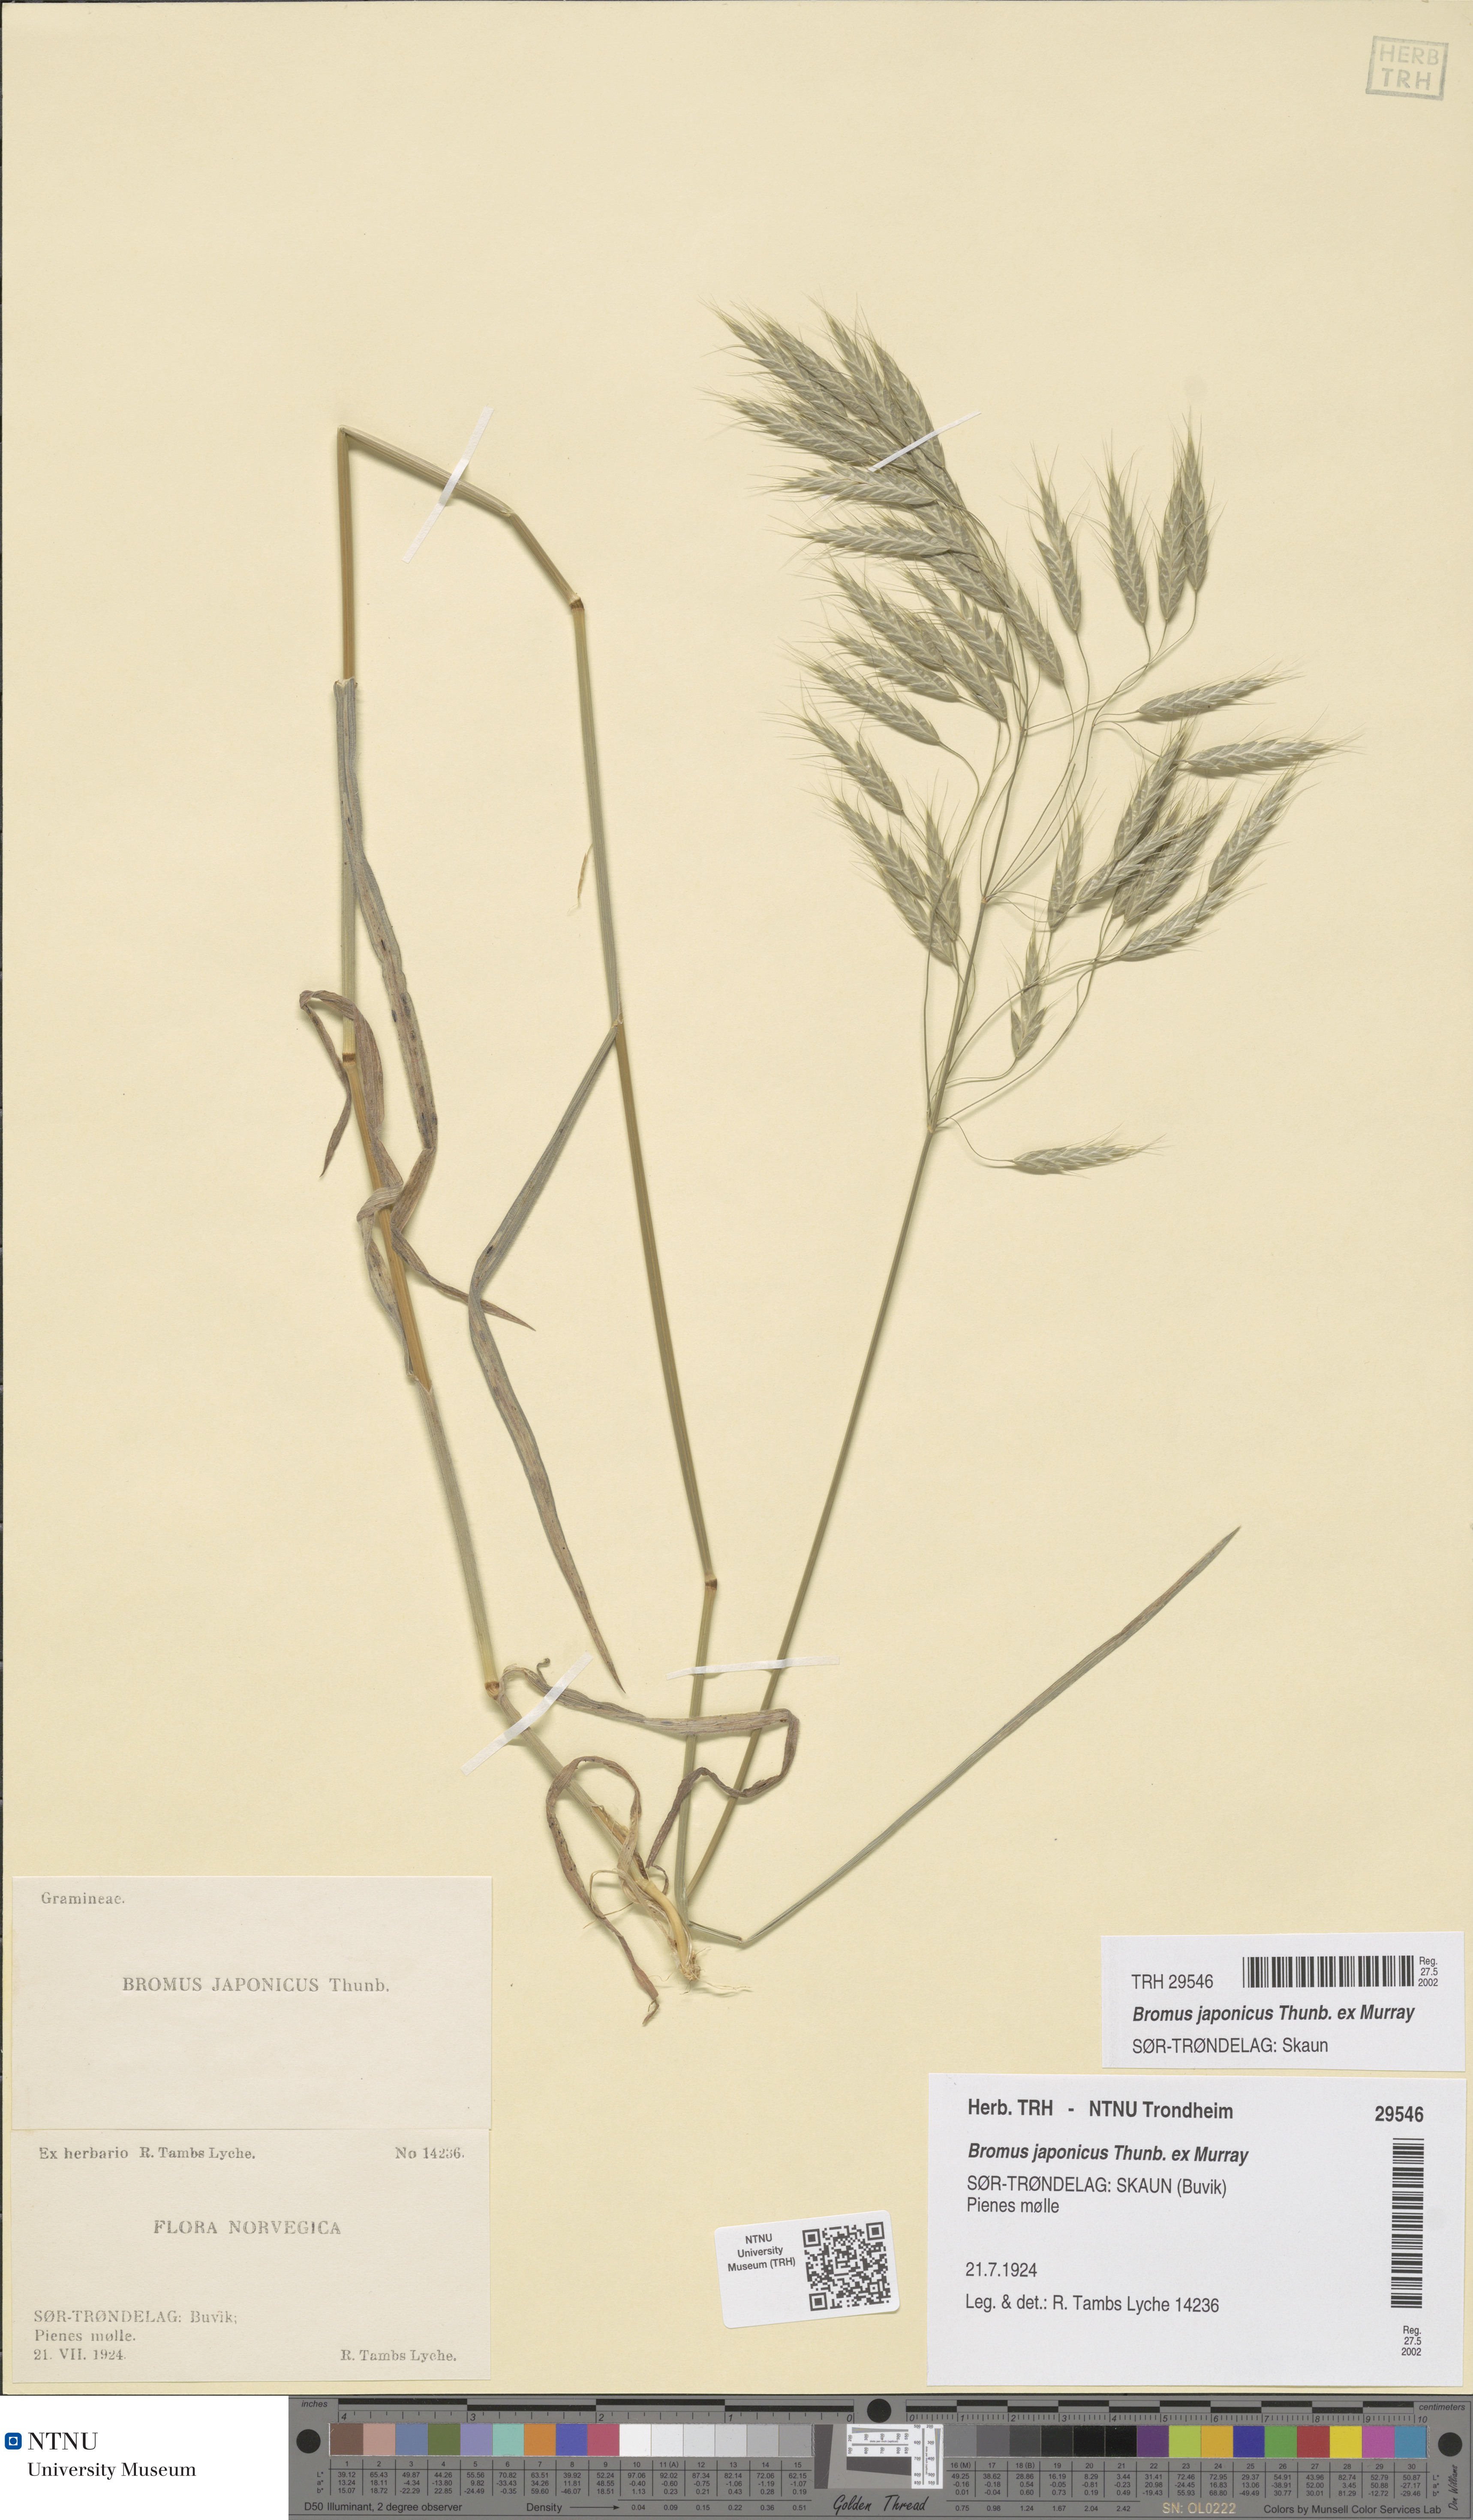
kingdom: Plantae
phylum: Tracheophyta
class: Liliopsida
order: Poales
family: Poaceae
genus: Bromus
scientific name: Bromus japonicus
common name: Japanese brome
